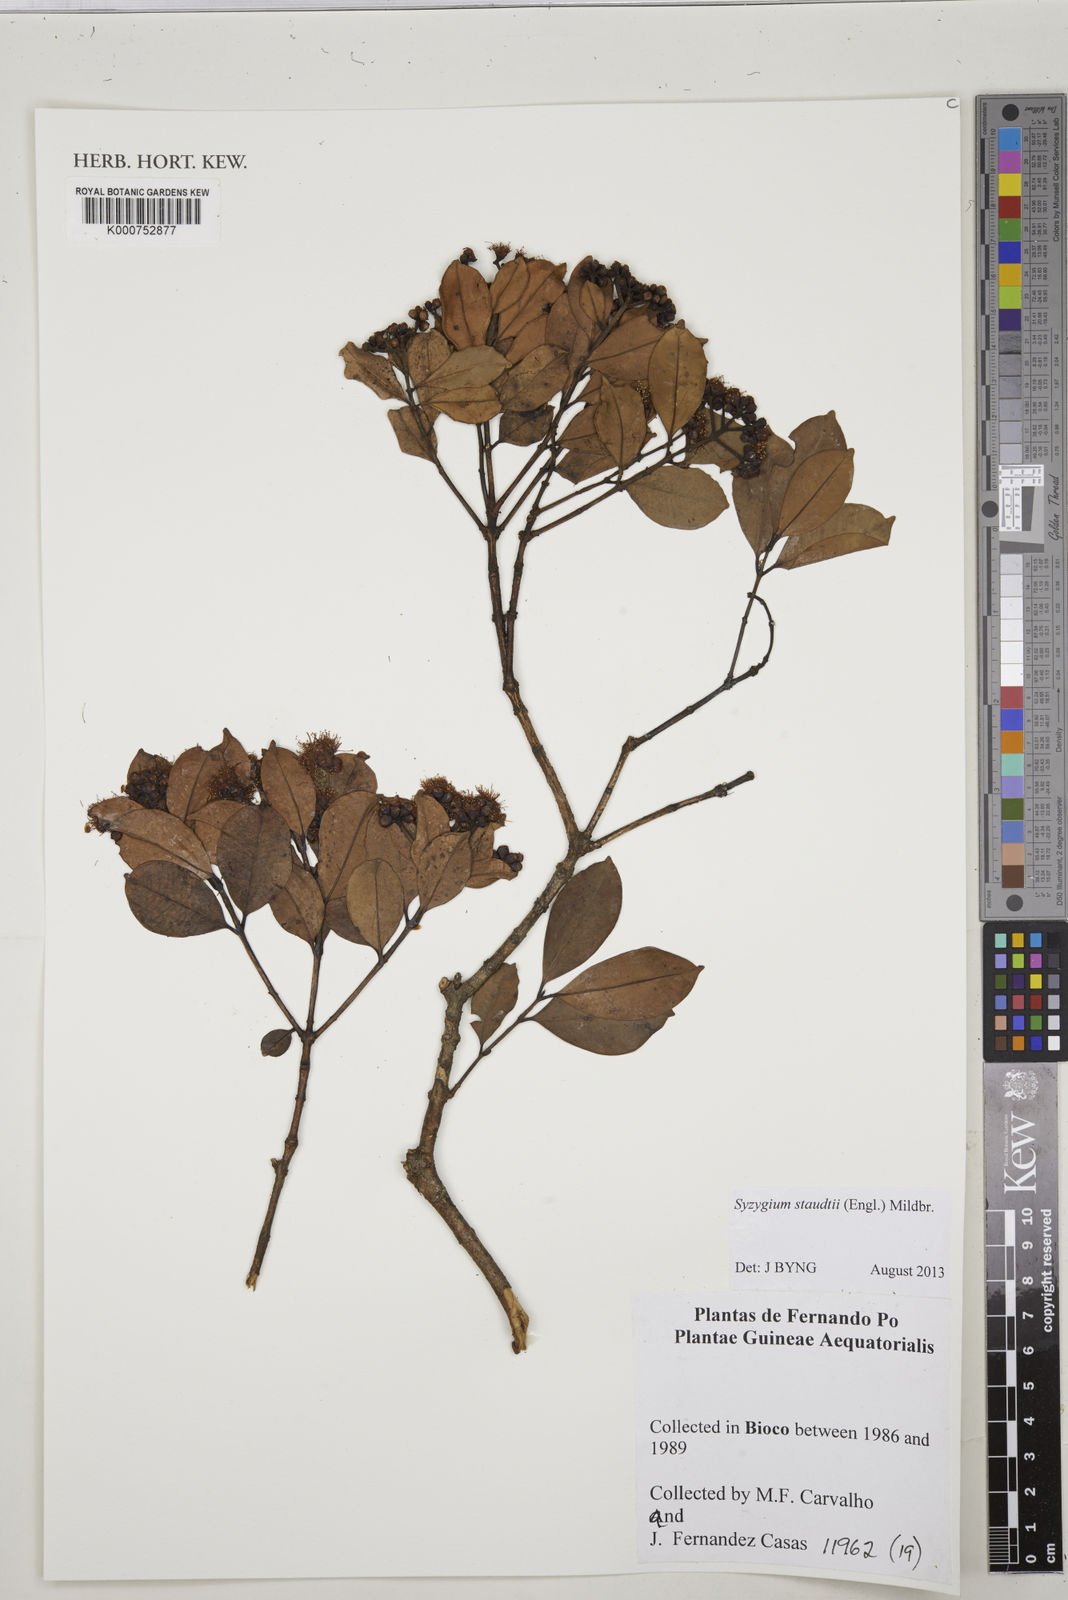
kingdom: Plantae
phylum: Tracheophyta
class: Magnoliopsida
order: Myrtales
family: Myrtaceae
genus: Syzygium
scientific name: Syzygium staudtii
